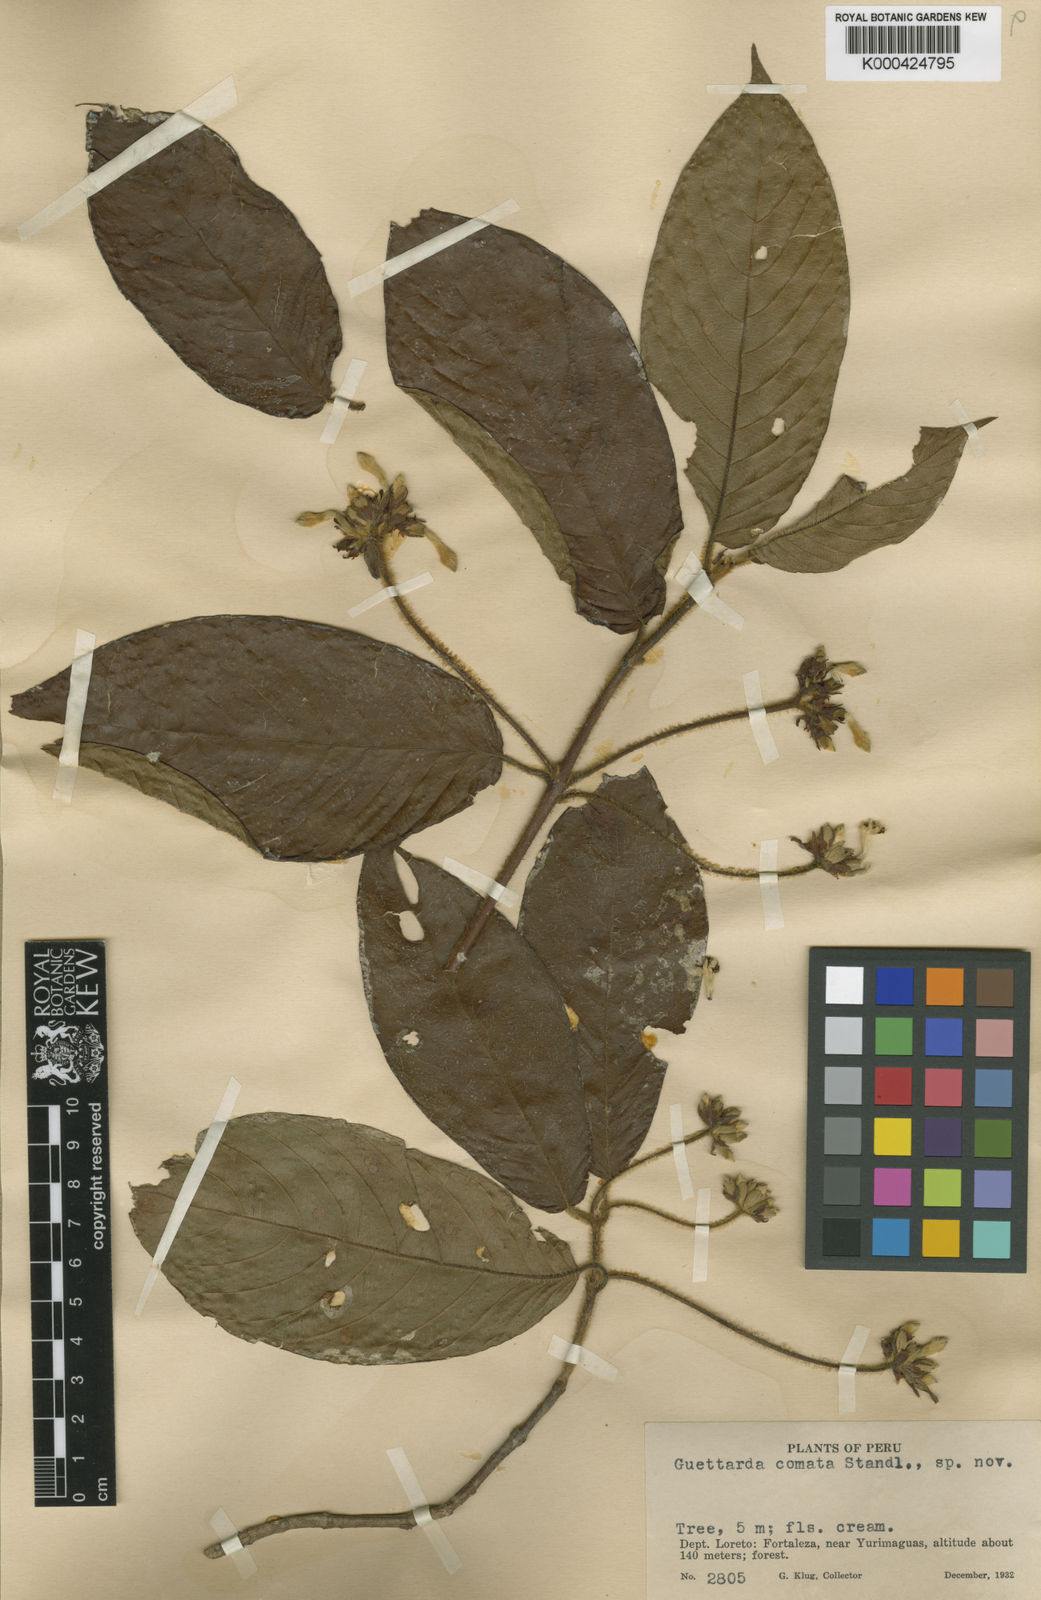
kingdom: Plantae
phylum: Tracheophyta
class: Magnoliopsida
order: Gentianales
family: Rubiaceae
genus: Guettarda
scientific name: Guettarda comata
